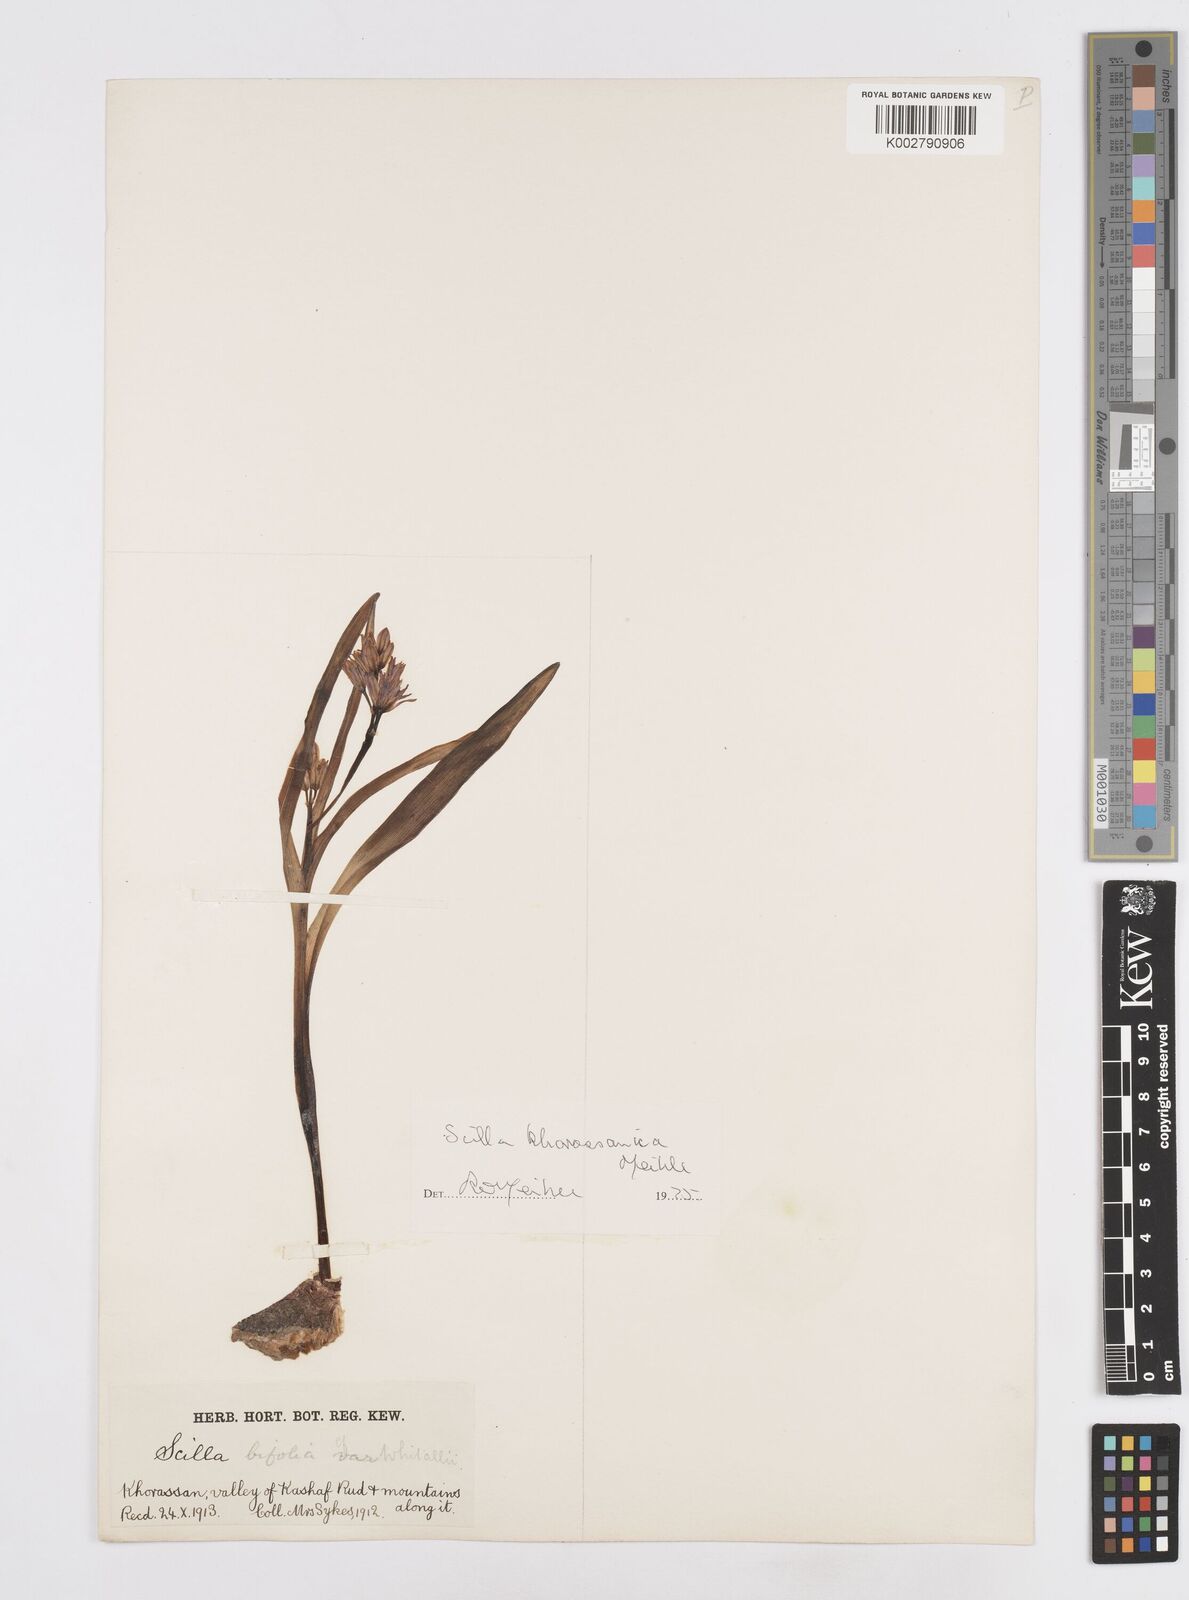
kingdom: Plantae
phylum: Tracheophyta
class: Liliopsida
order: Asparagales
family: Asparagaceae
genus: Fessia
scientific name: Fessia khorassanica
